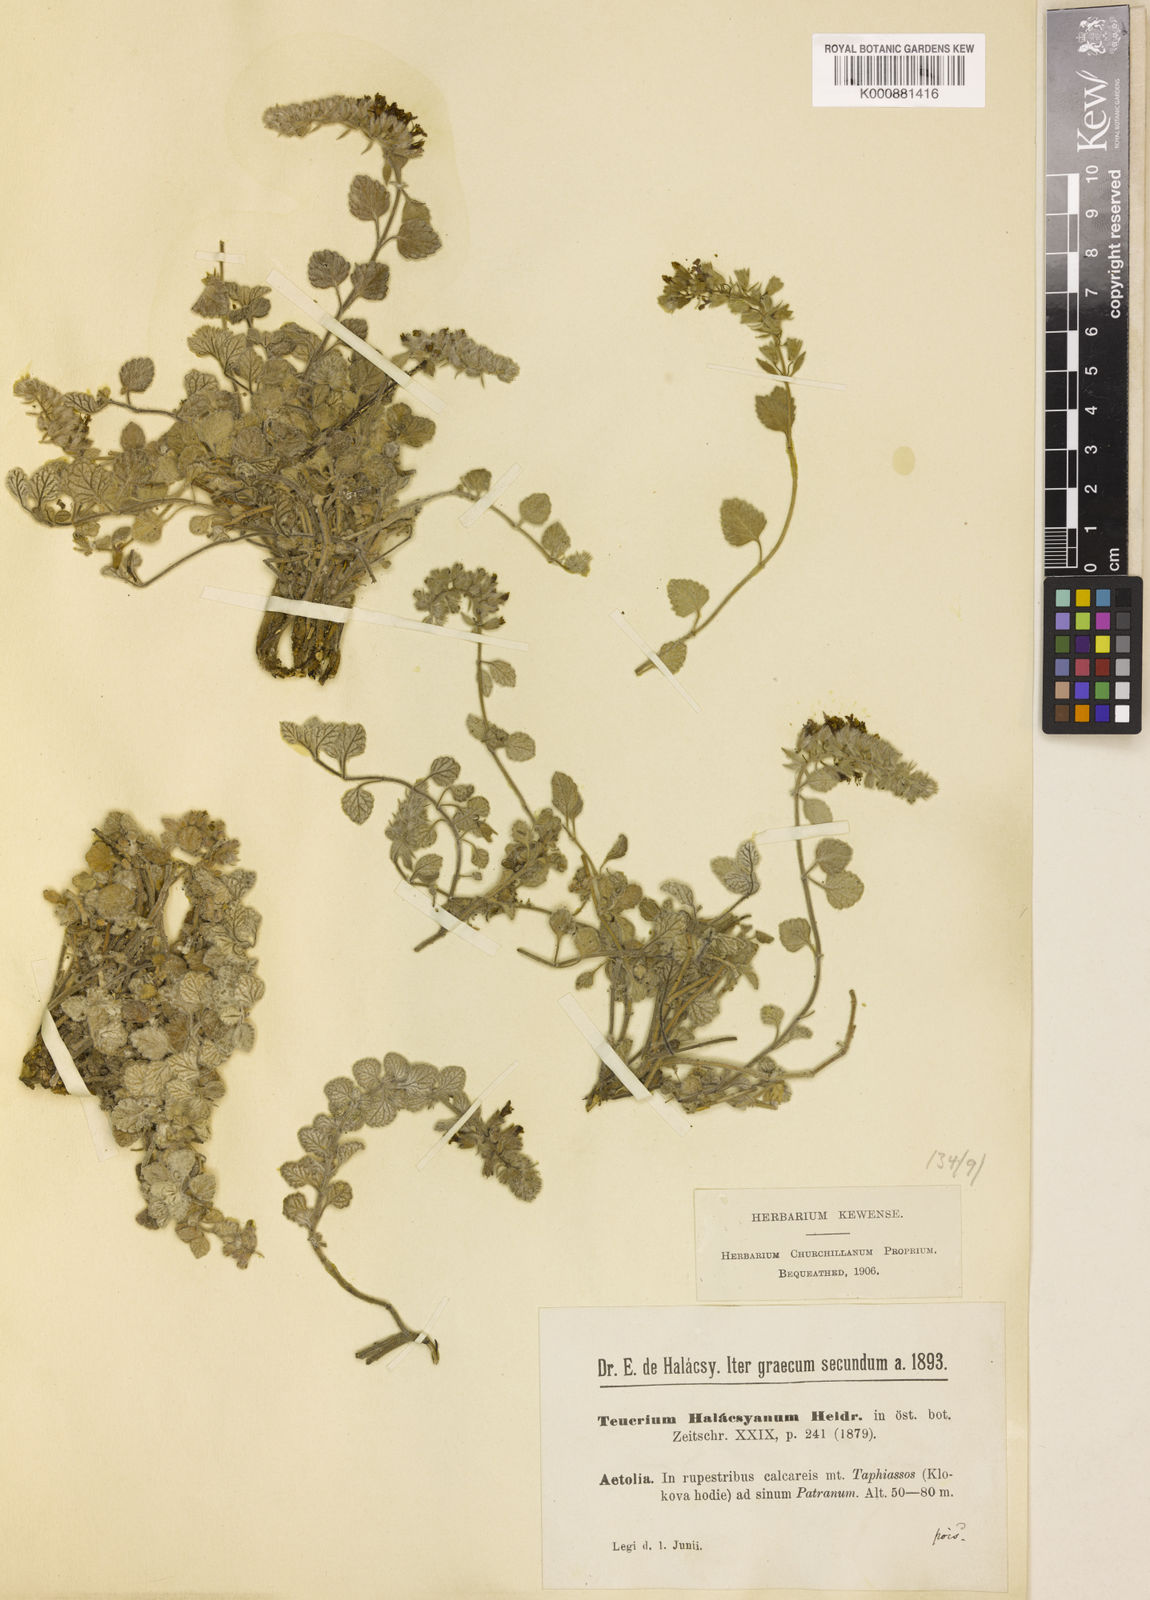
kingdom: Plantae
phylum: Tracheophyta
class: Magnoliopsida
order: Lamiales
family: Lamiaceae
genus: Teucrium
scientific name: Teucrium halacsyanum
